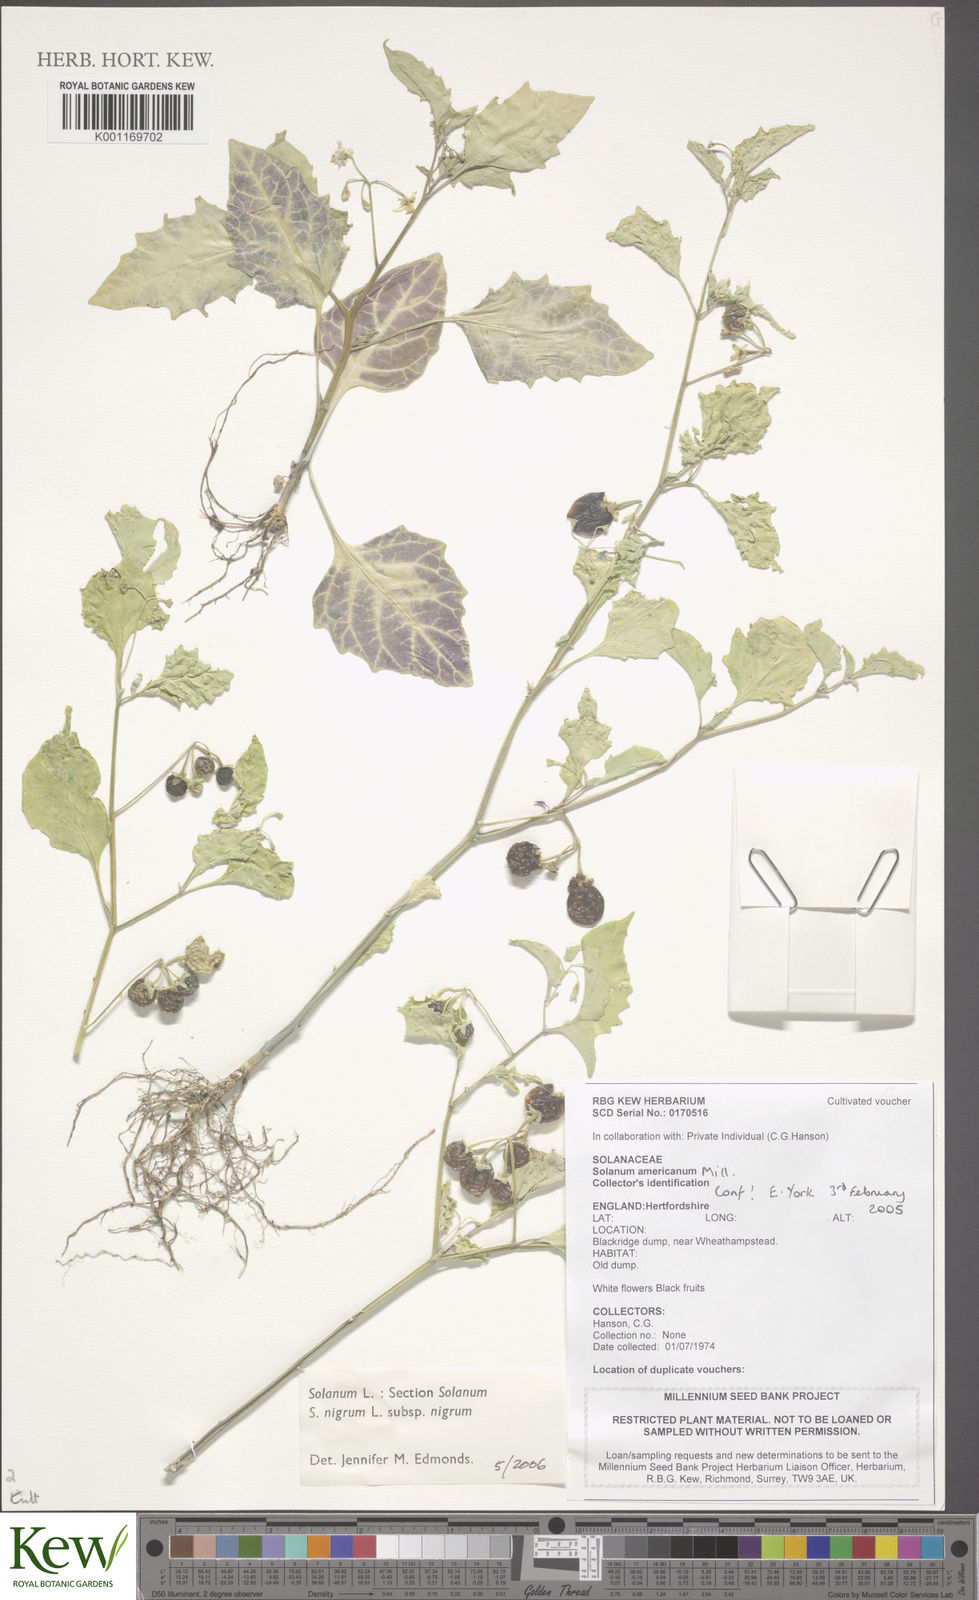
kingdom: Plantae
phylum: Tracheophyta
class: Magnoliopsida
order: Solanales
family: Solanaceae
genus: Solanum
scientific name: Solanum nigrum
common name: Black nightshade
